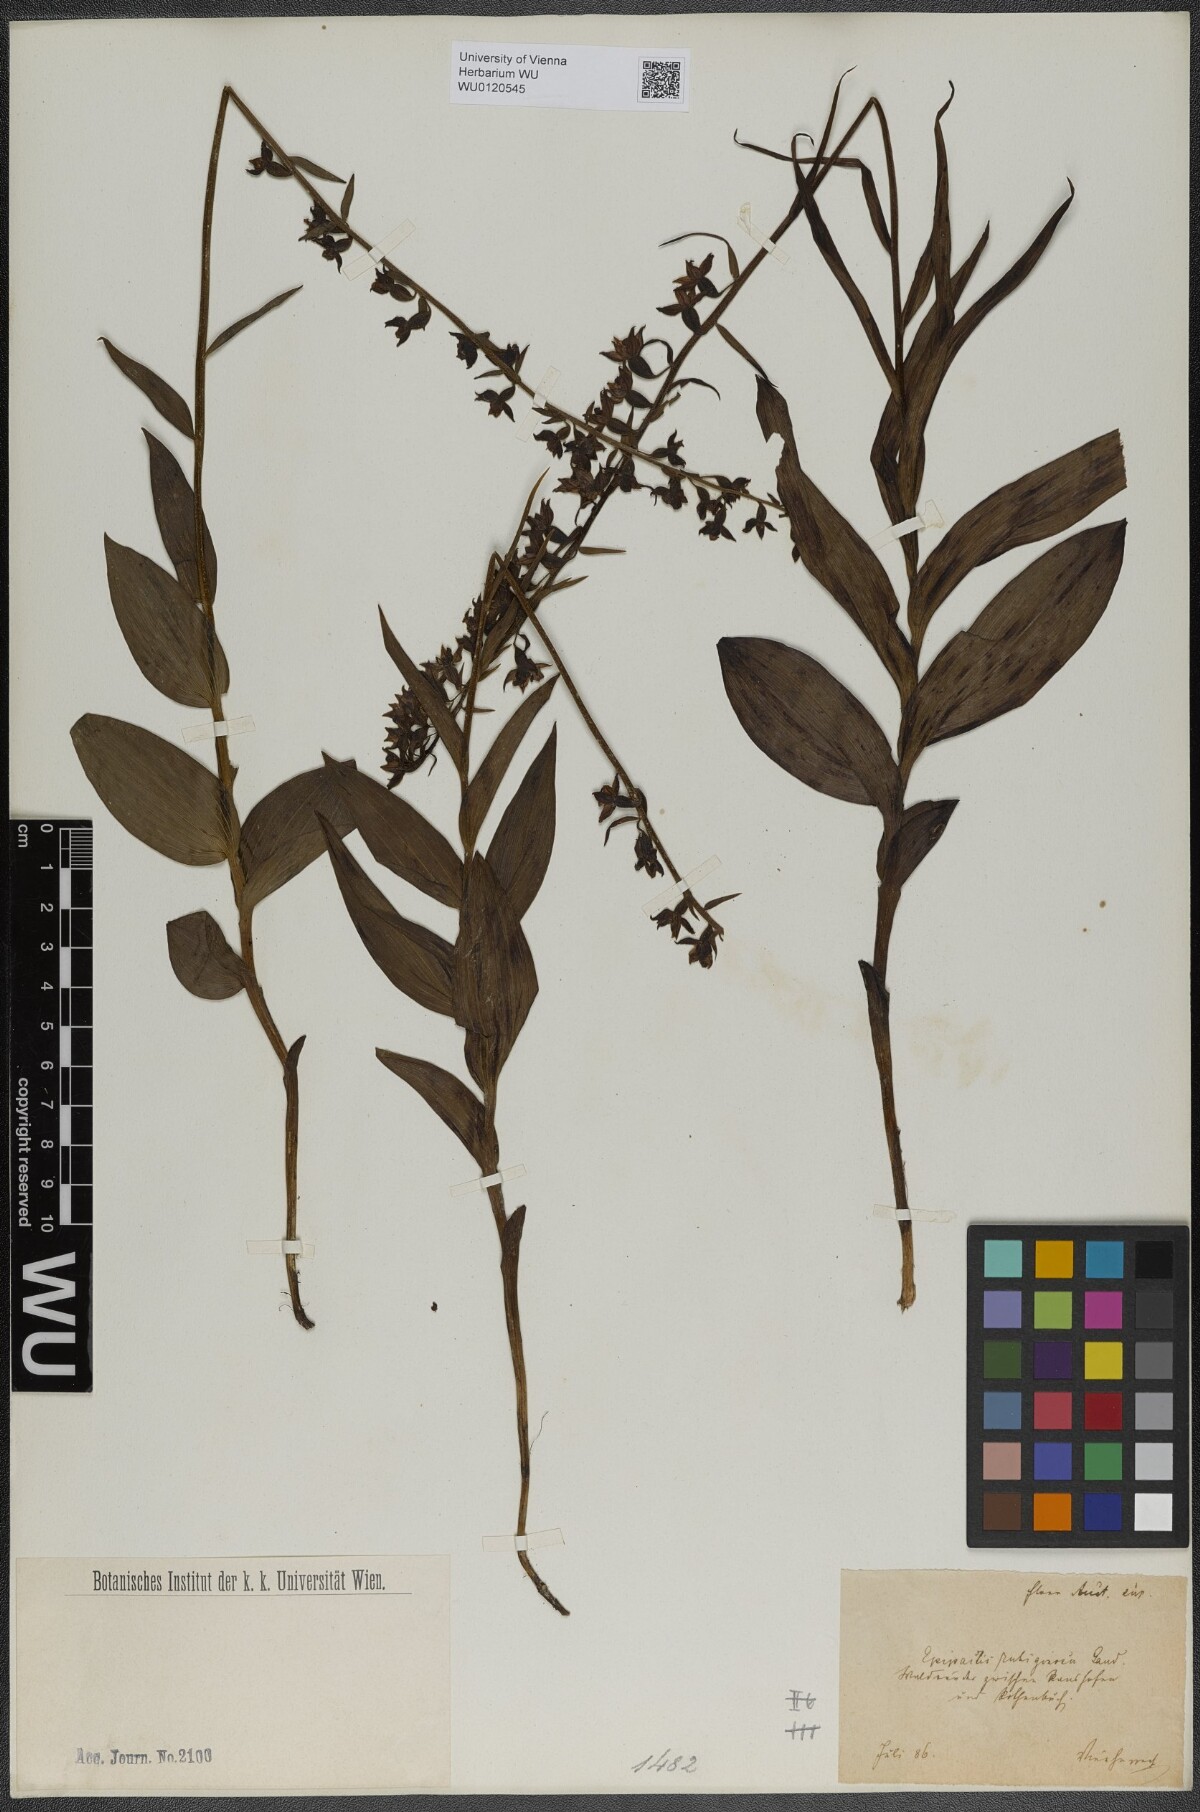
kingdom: Plantae
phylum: Tracheophyta
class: Liliopsida
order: Asparagales
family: Orchidaceae
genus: Epipactis
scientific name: Epipactis atrorubens
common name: Dark-red helleborine
